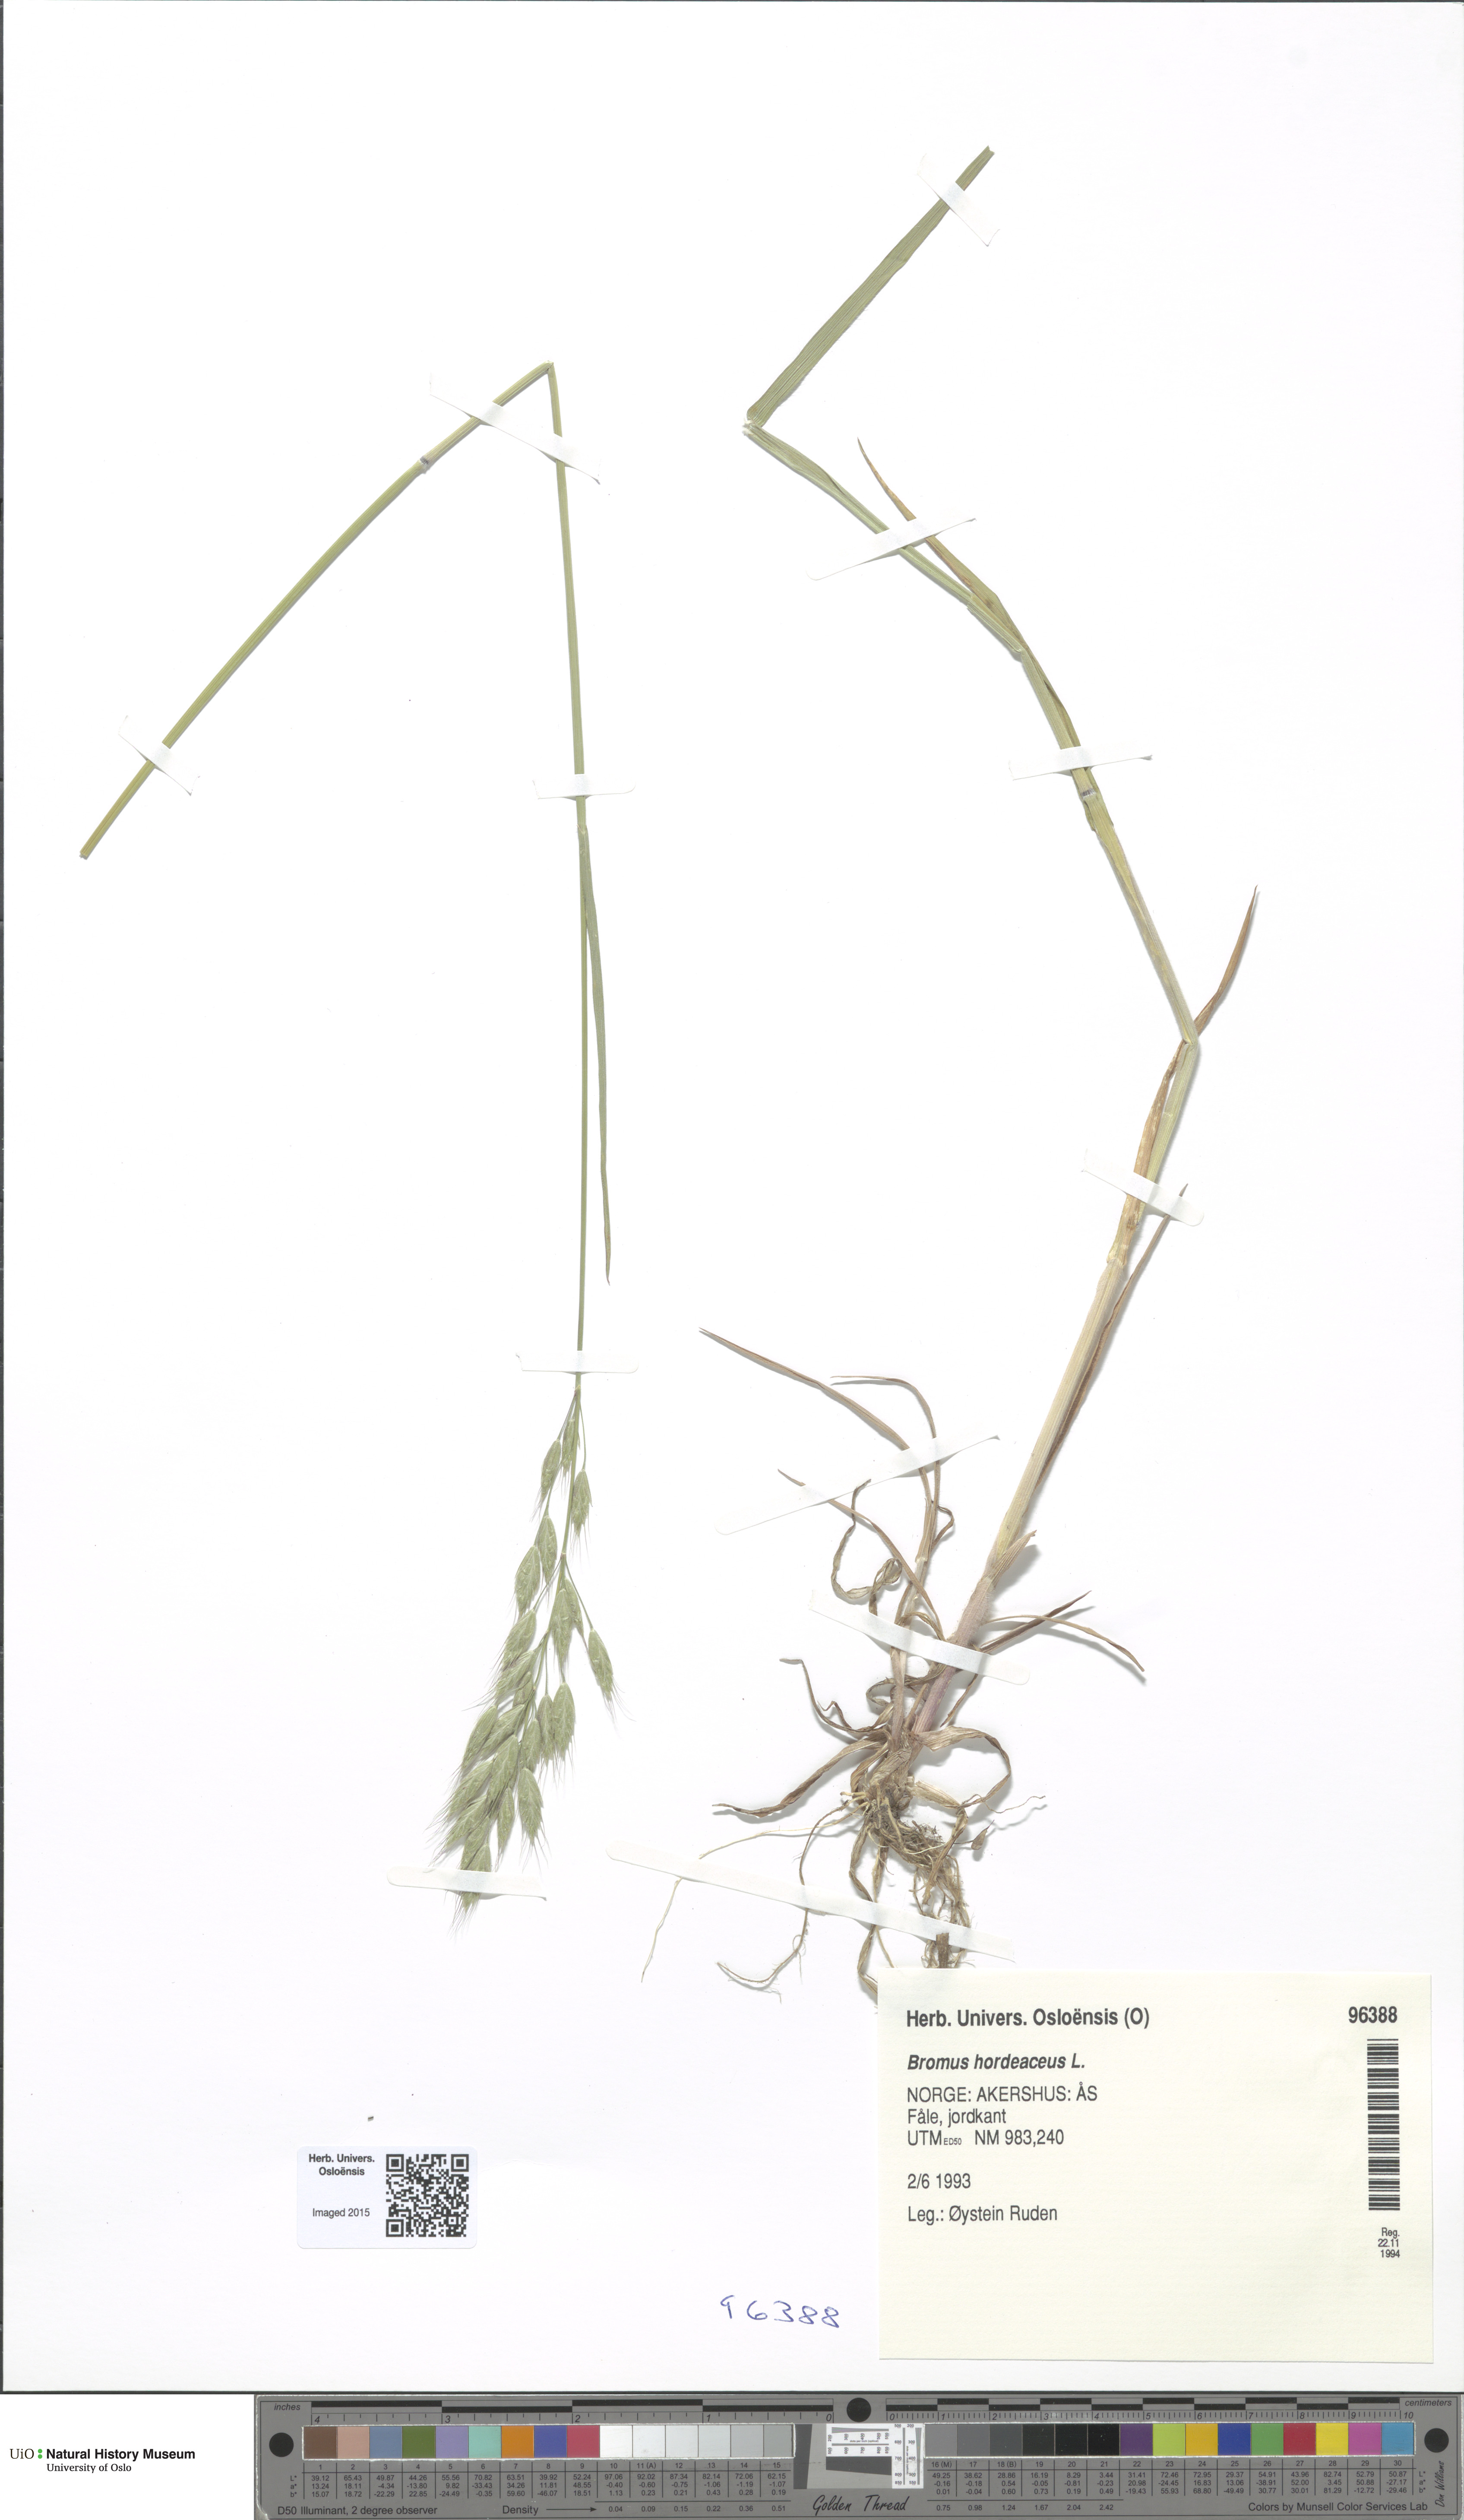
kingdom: Plantae
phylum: Tracheophyta
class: Liliopsida
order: Poales
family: Poaceae
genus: Bromus
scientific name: Bromus hordeaceus
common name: Soft brome
